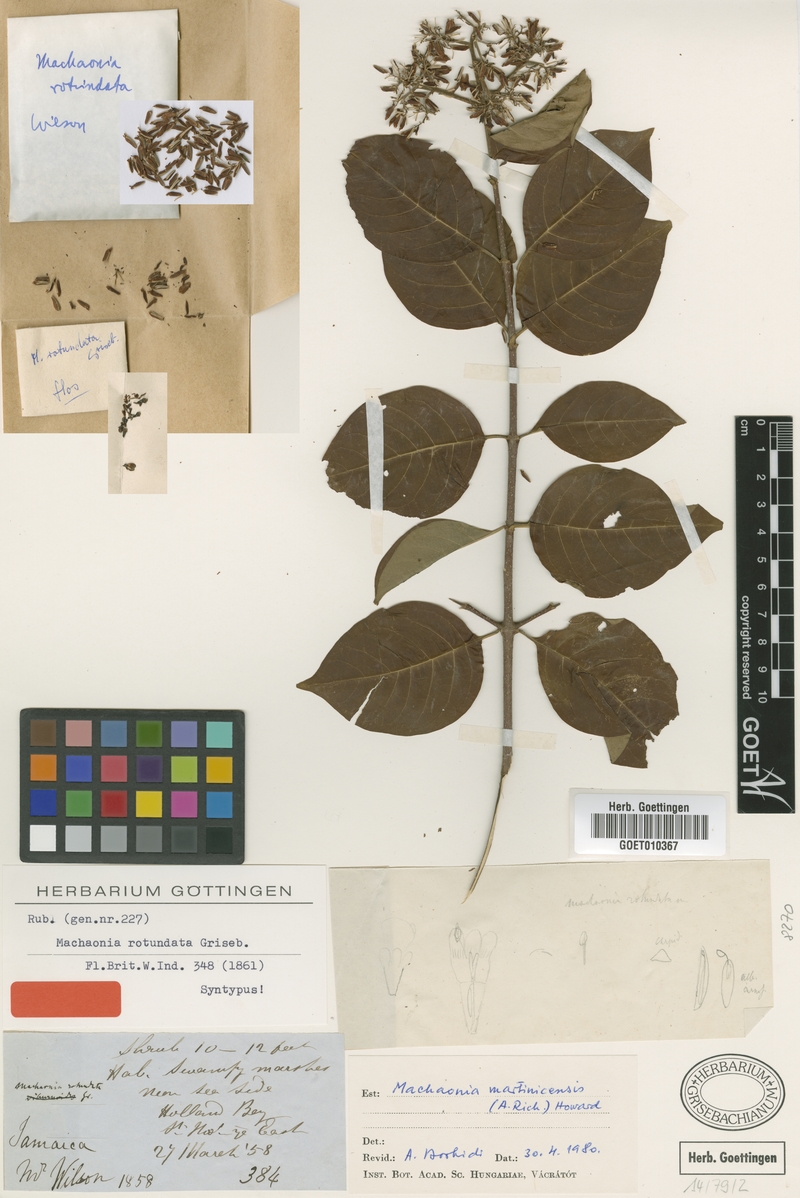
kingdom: Plantae
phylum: Tracheophyta
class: Magnoliopsida
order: Gentianales
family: Rubiaceae
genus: Machaonia
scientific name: Machaonia martinicensis
